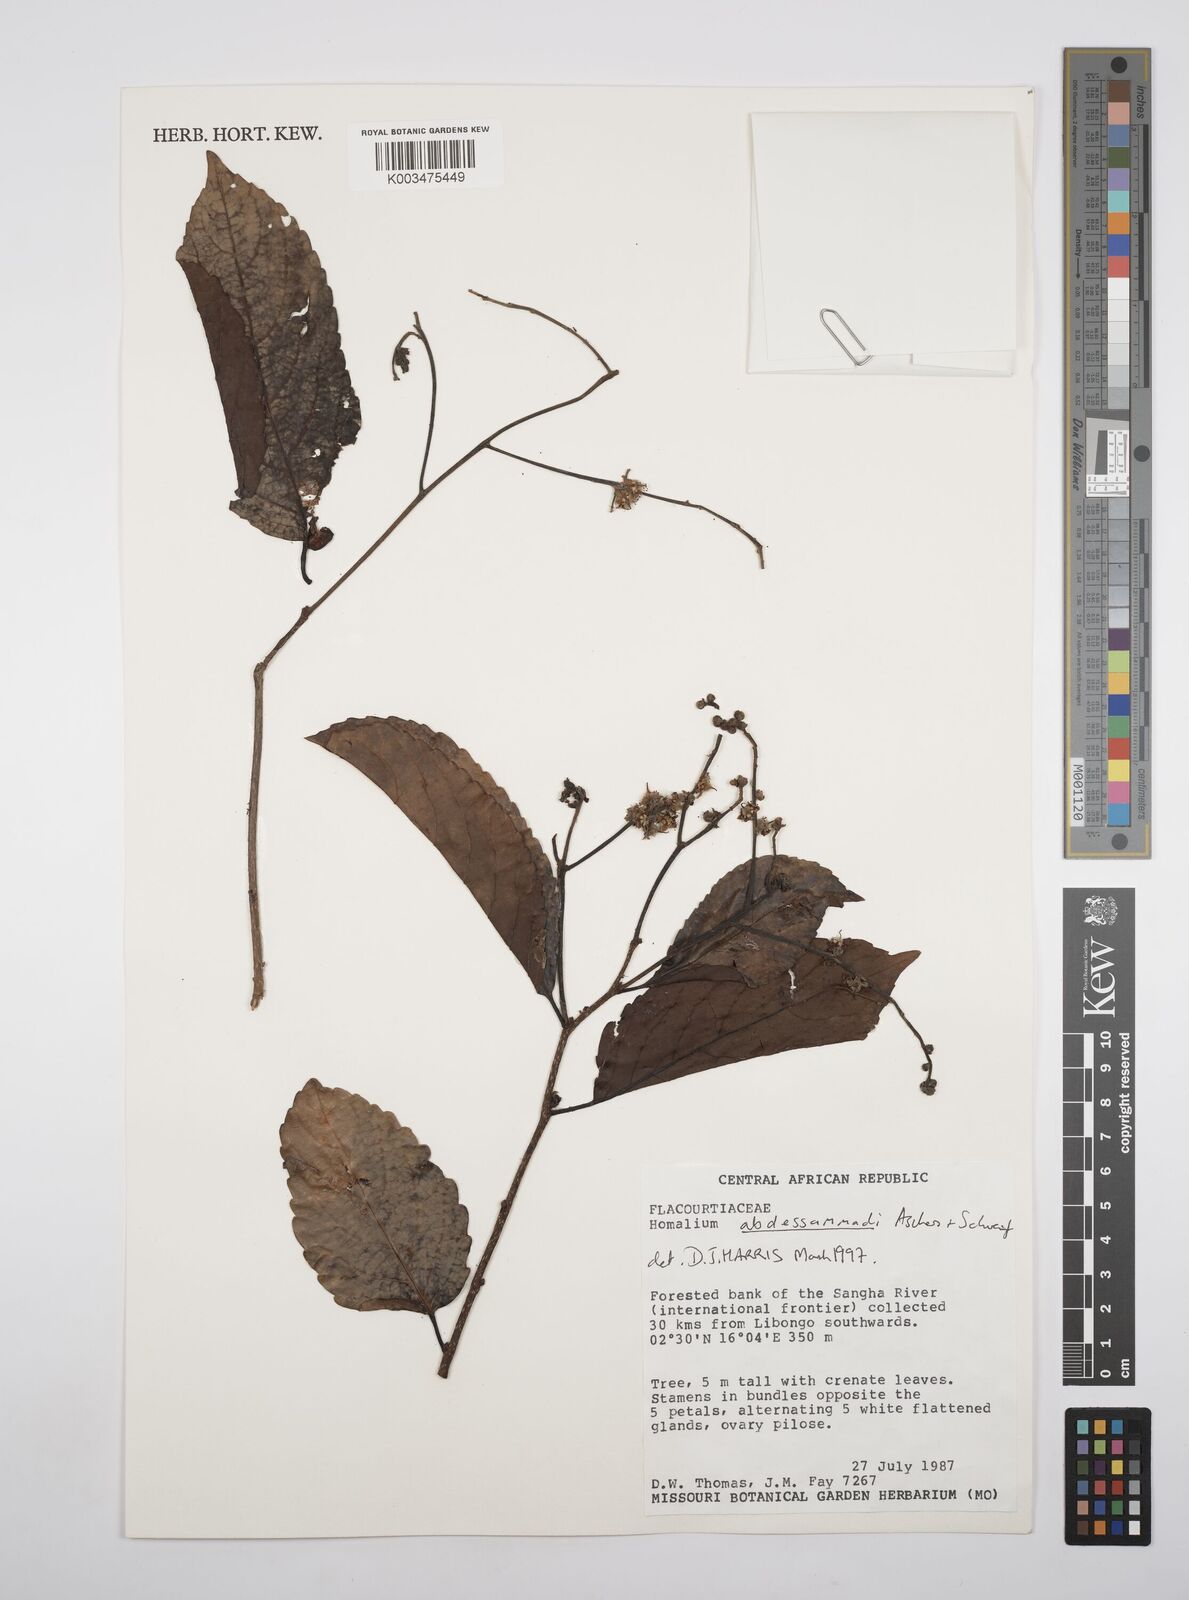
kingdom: Plantae
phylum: Tracheophyta
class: Magnoliopsida
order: Malpighiales
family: Salicaceae
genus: Homalium
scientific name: Homalium abdessammadii
